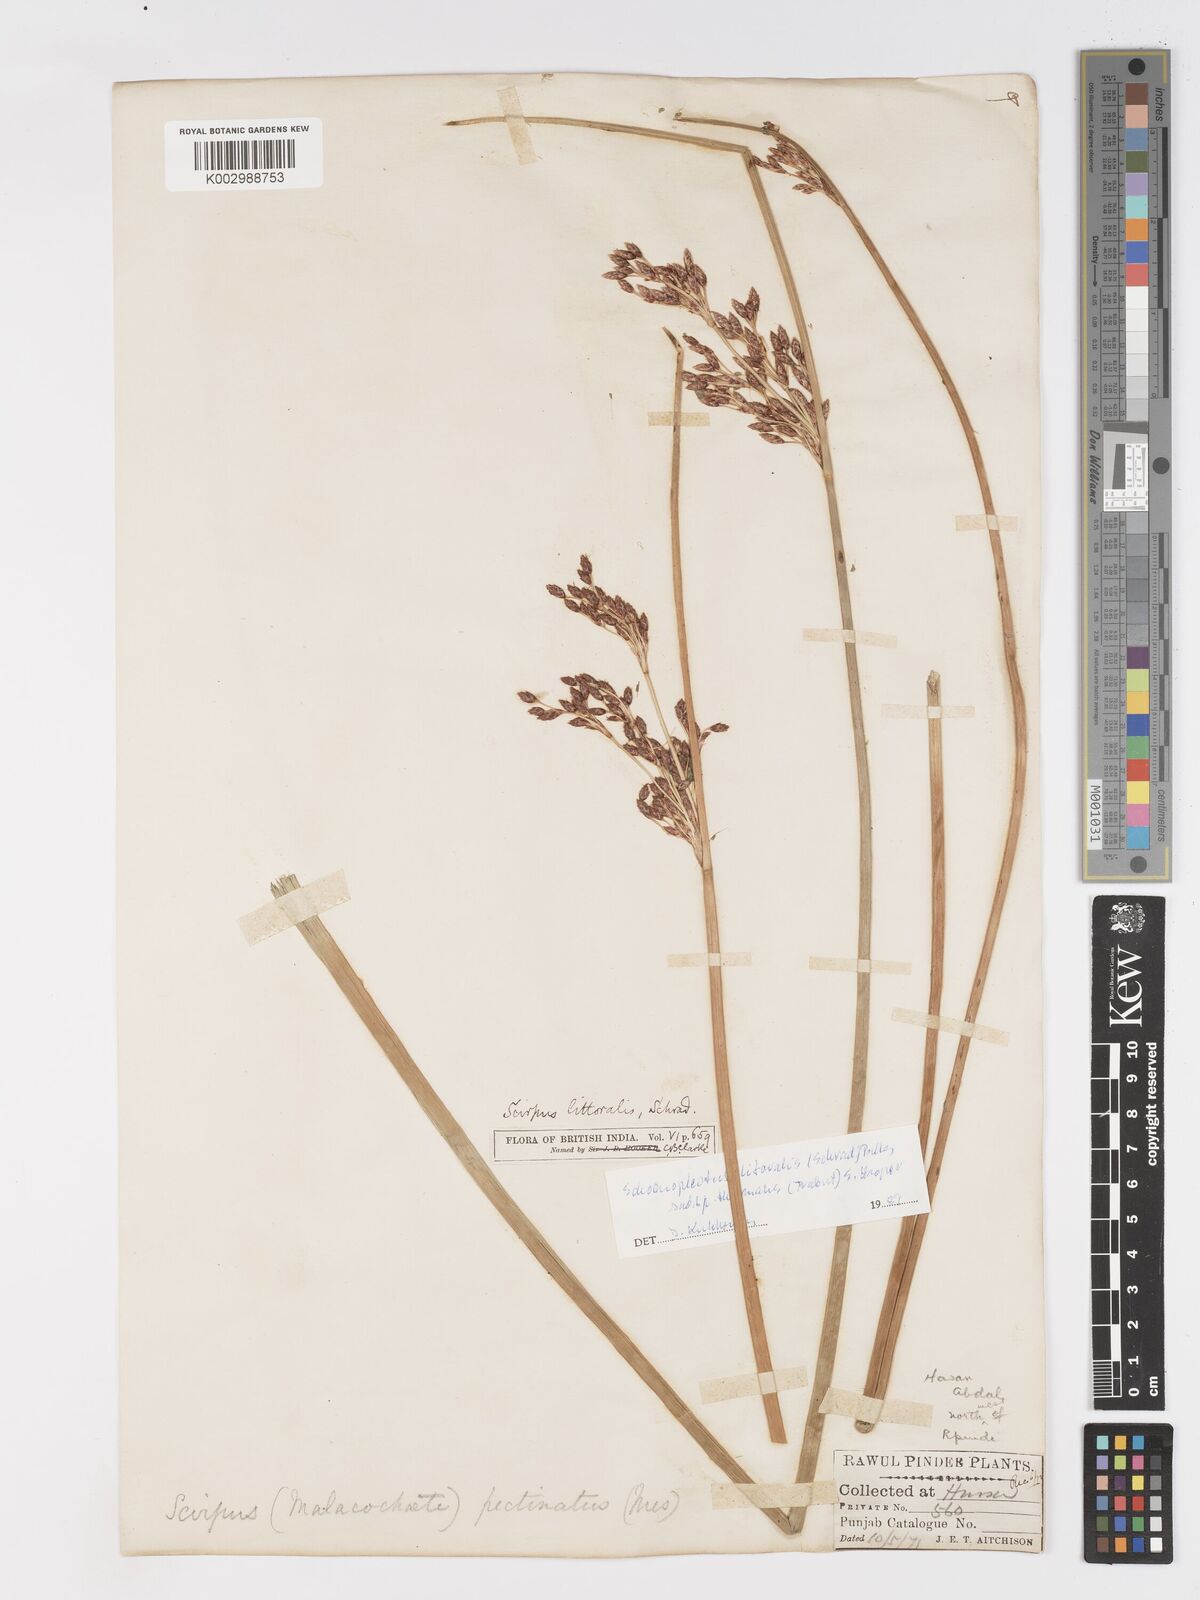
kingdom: Plantae
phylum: Tracheophyta
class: Liliopsida
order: Poales
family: Cyperaceae
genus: Schoenoplectus
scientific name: Schoenoplectus litoralis
